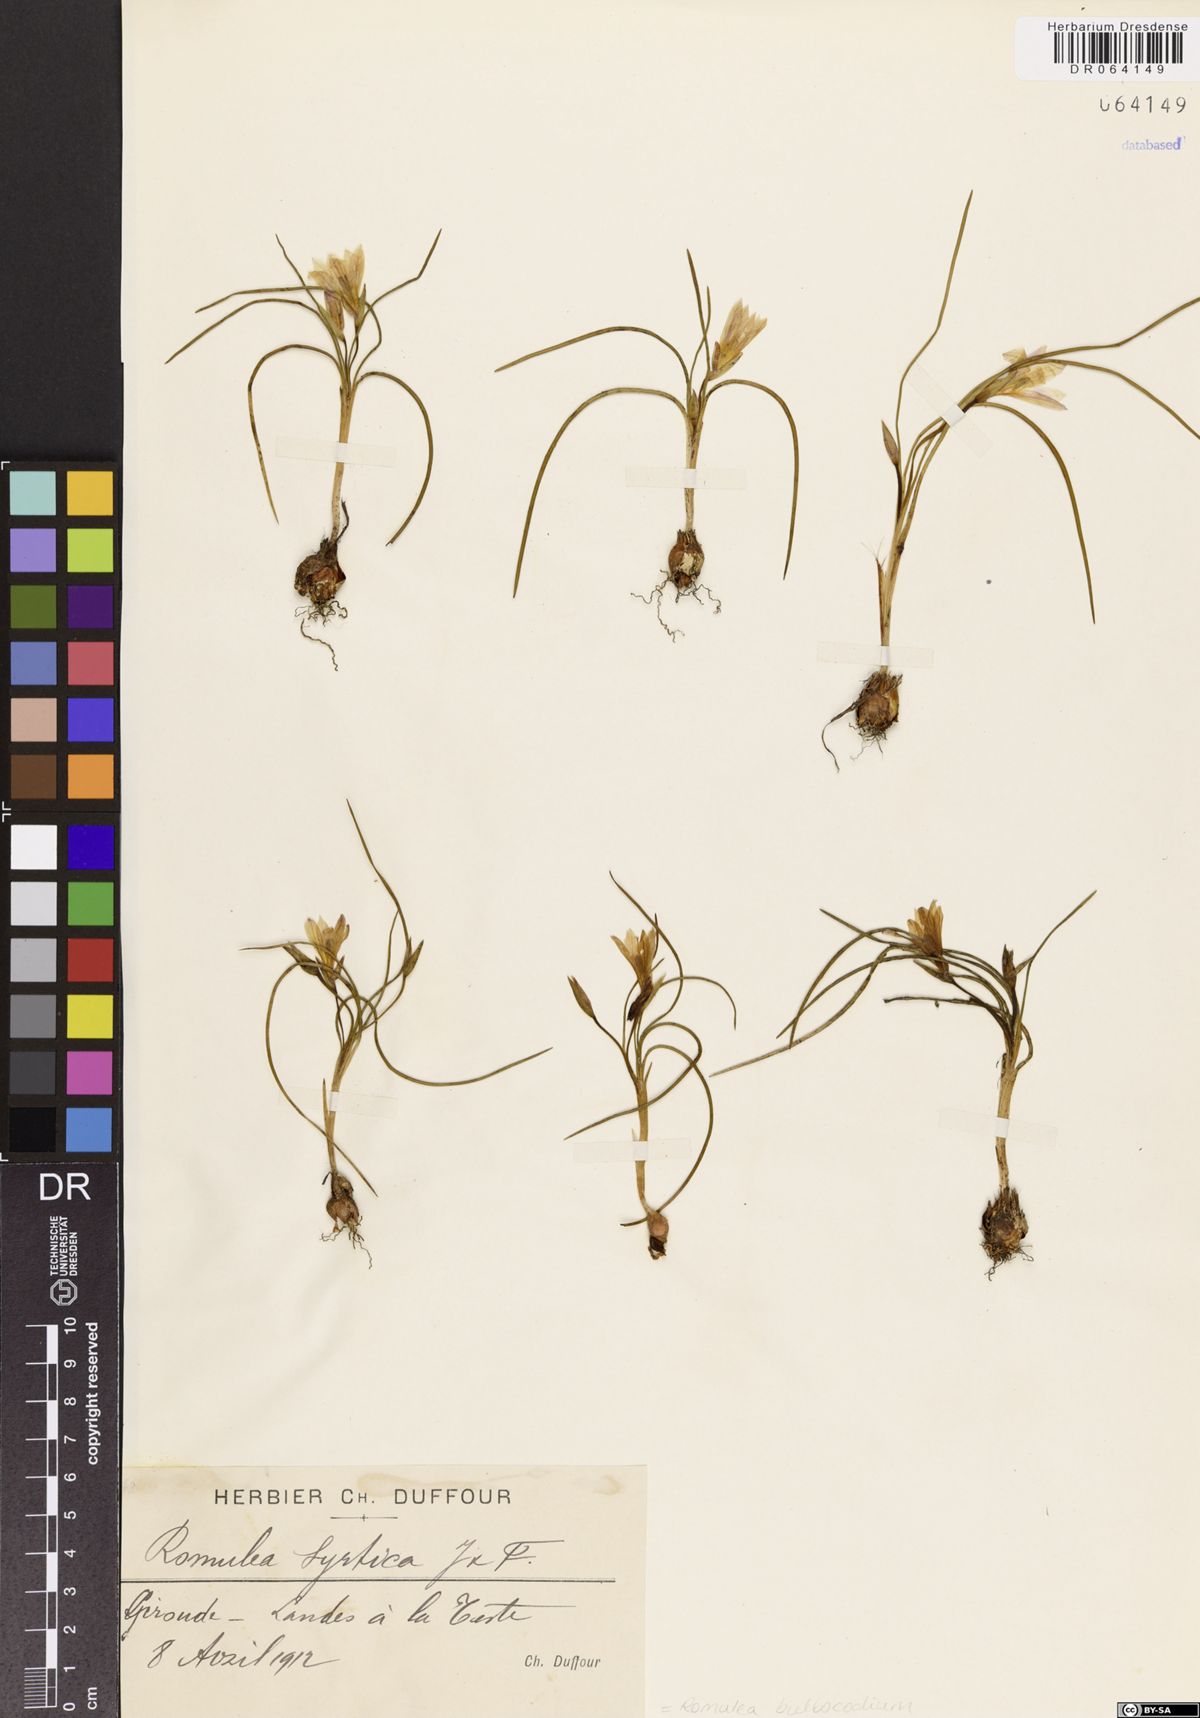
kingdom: Plantae
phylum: Tracheophyta
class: Liliopsida
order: Asparagales
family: Iridaceae
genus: Romulea
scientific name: Romulea bulbocodium
